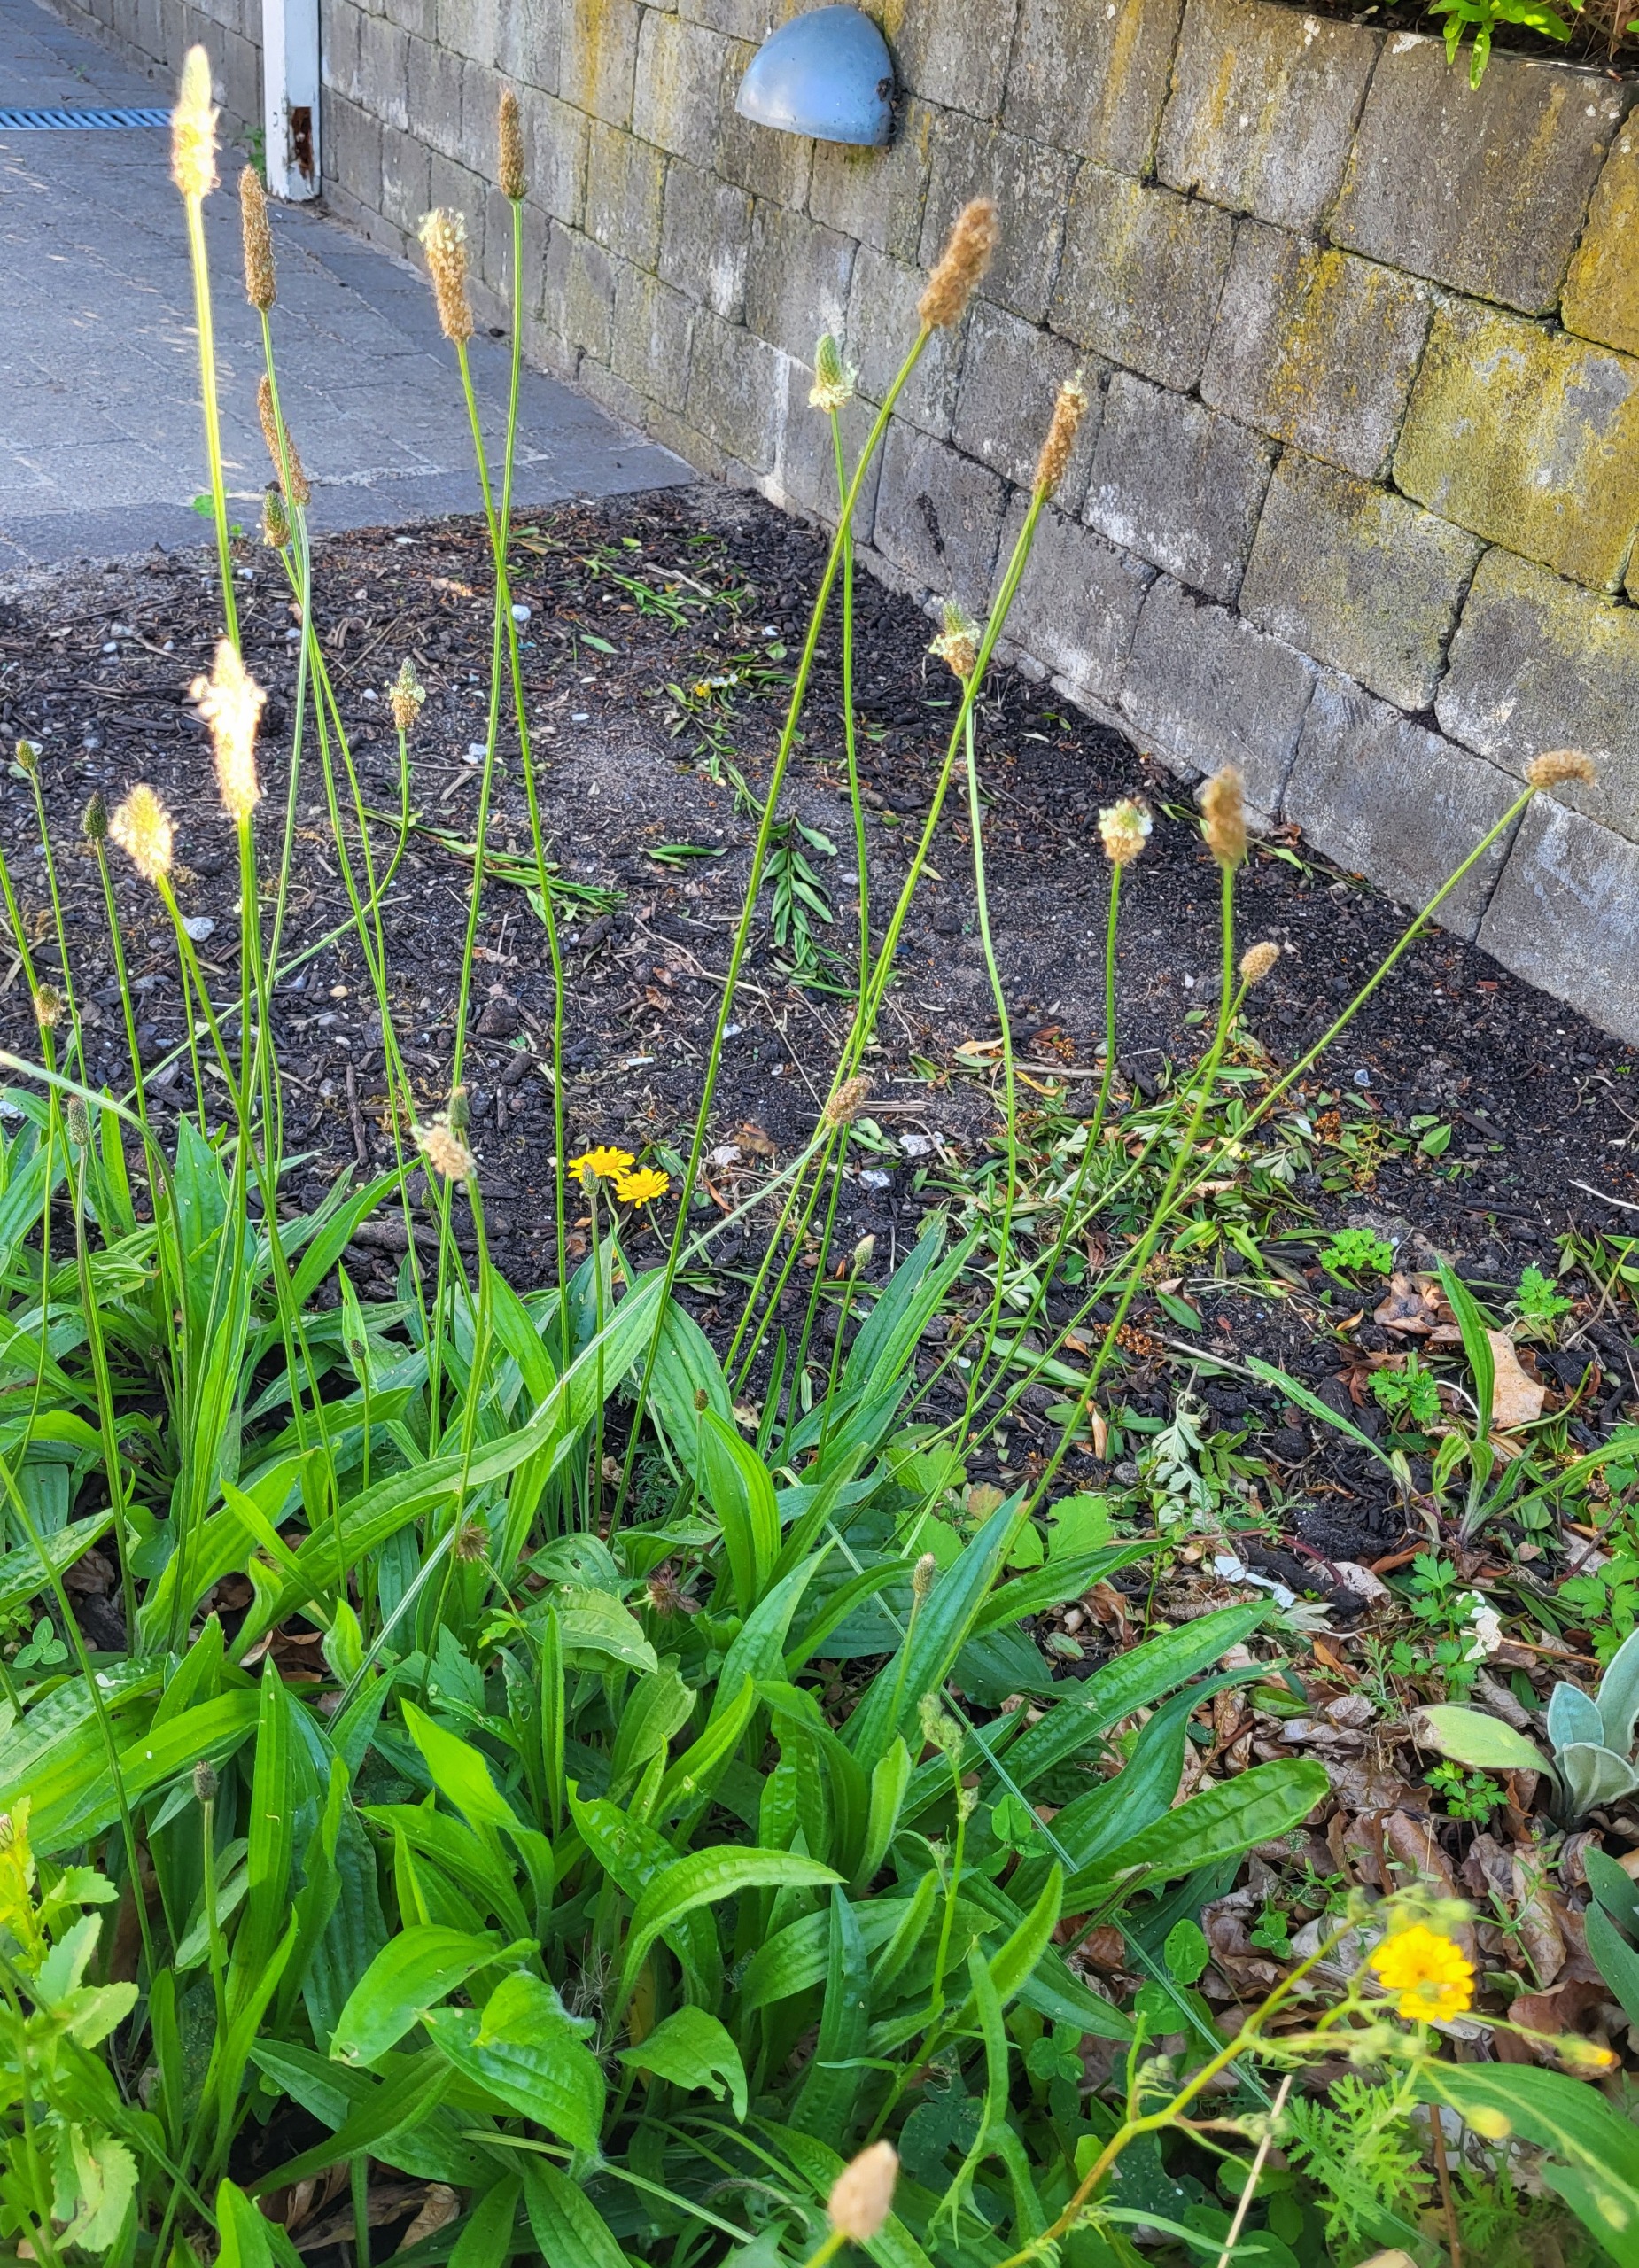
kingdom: Plantae
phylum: Tracheophyta
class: Magnoliopsida
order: Lamiales
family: Plantaginaceae
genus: Plantago
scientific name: Plantago lanceolata
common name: Lancet-vejbred
